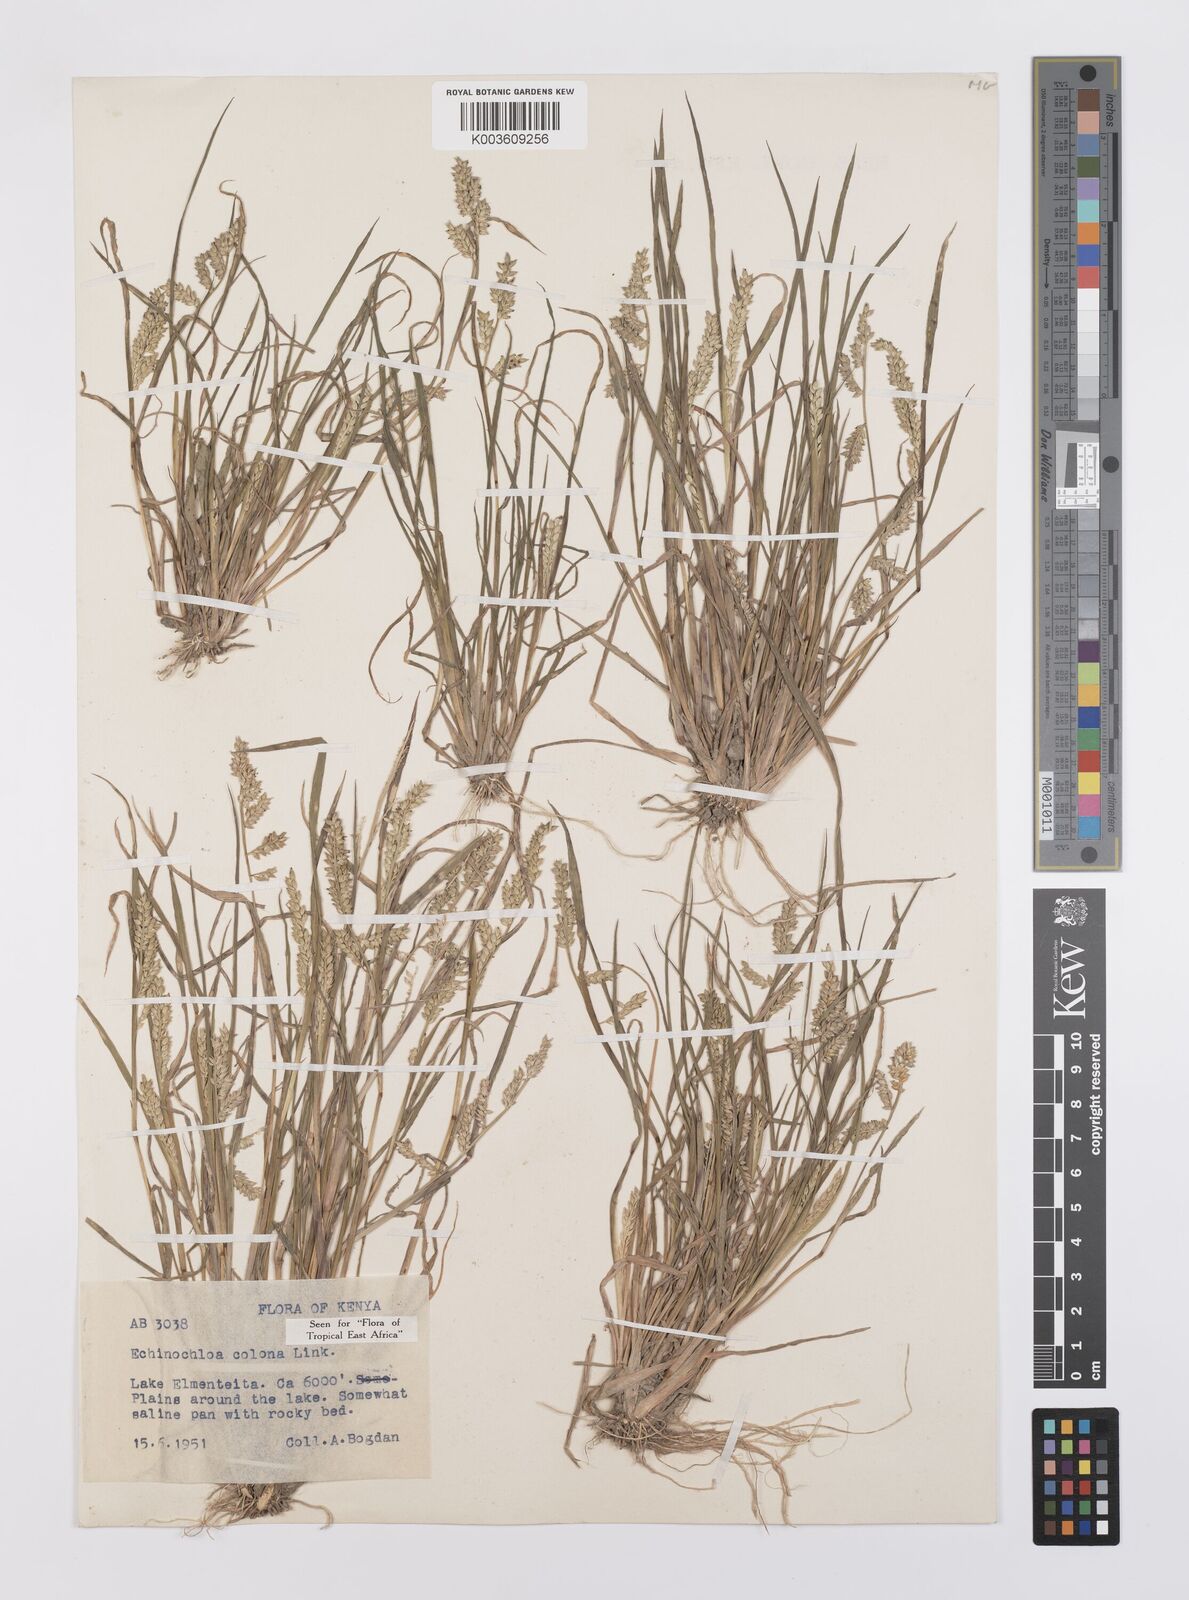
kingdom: Plantae
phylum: Tracheophyta
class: Liliopsida
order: Poales
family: Poaceae
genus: Echinochloa
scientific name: Echinochloa colonum
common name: Jungle rice
